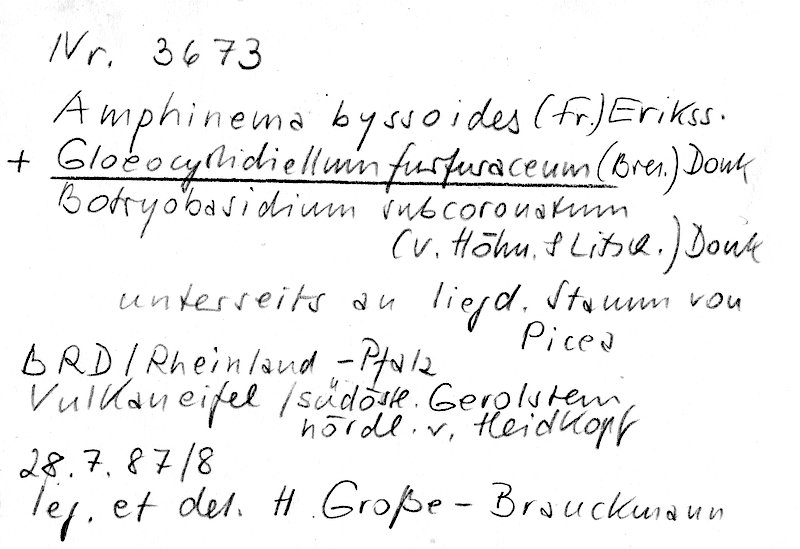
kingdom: Fungi
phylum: Basidiomycota
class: Agaricomycetes
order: Atheliales
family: Atheliaceae
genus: Amphinema
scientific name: Amphinema byssoides
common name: Cratered duster
